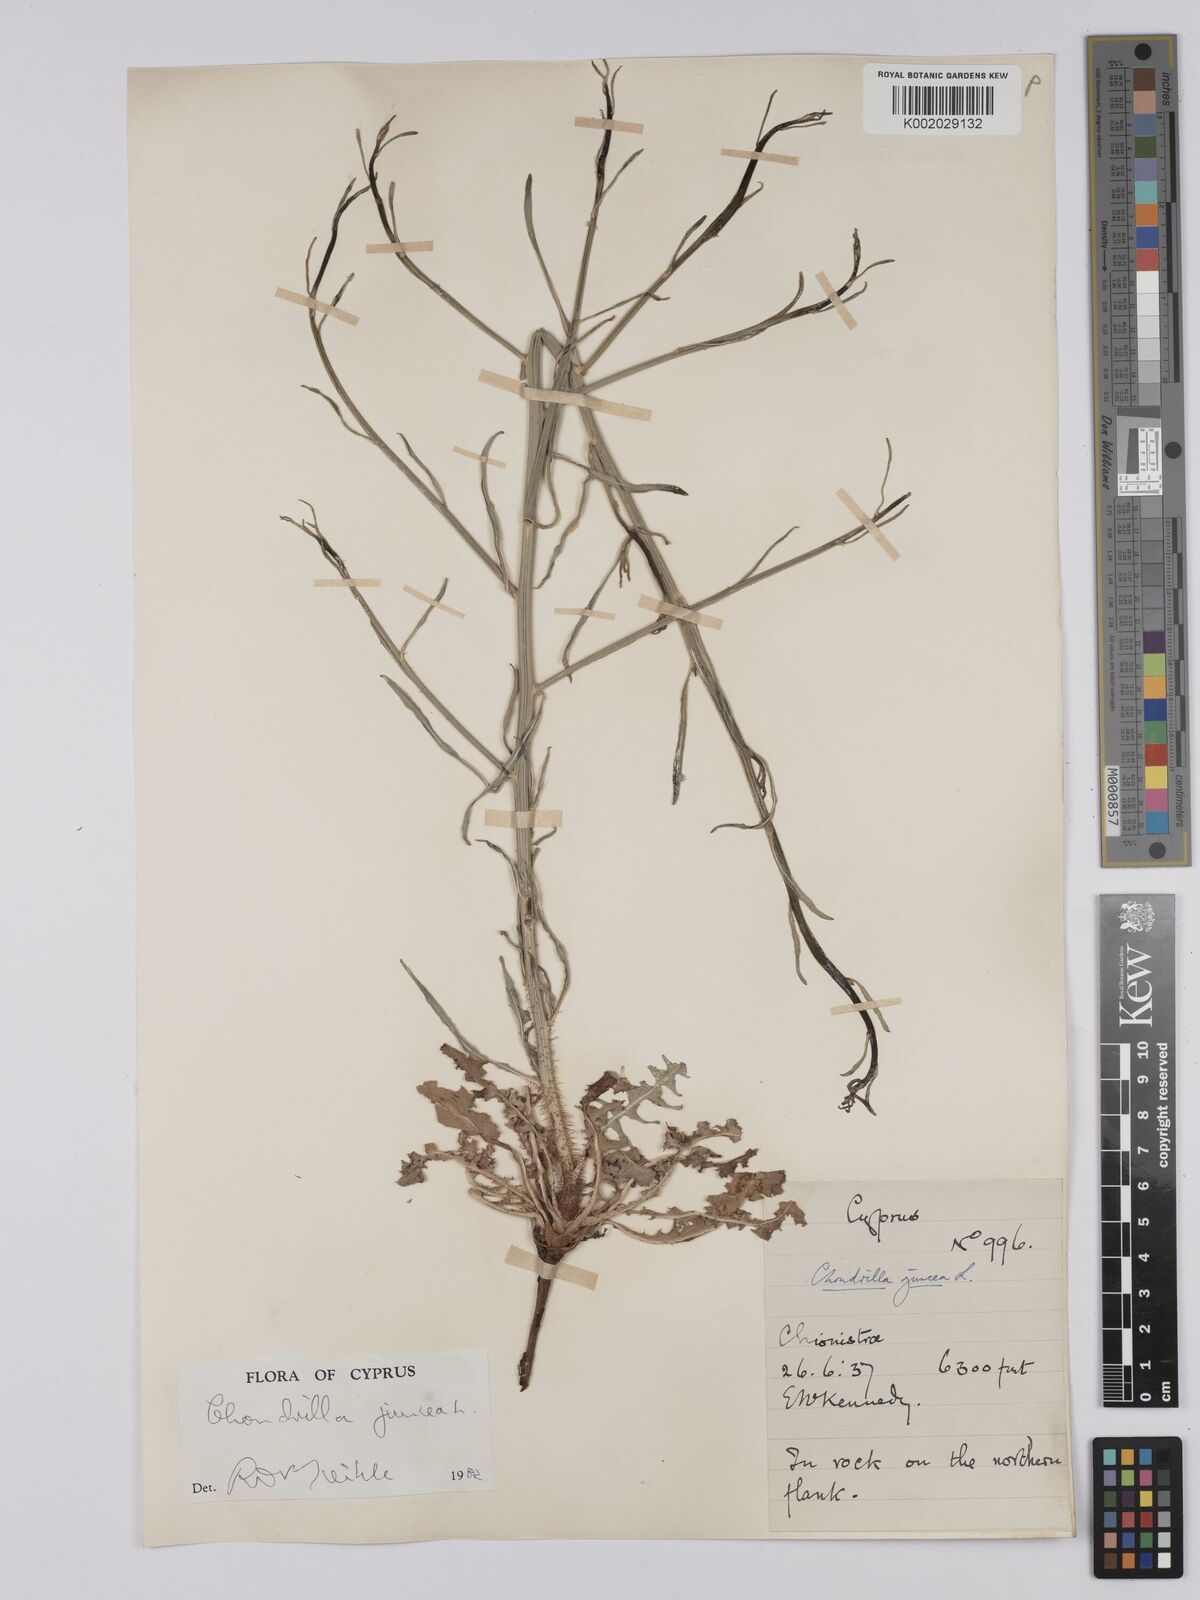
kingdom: Plantae
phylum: Tracheophyta
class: Magnoliopsida
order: Asterales
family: Asteraceae
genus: Chondrilla
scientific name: Chondrilla juncea
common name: Skeleton weed
